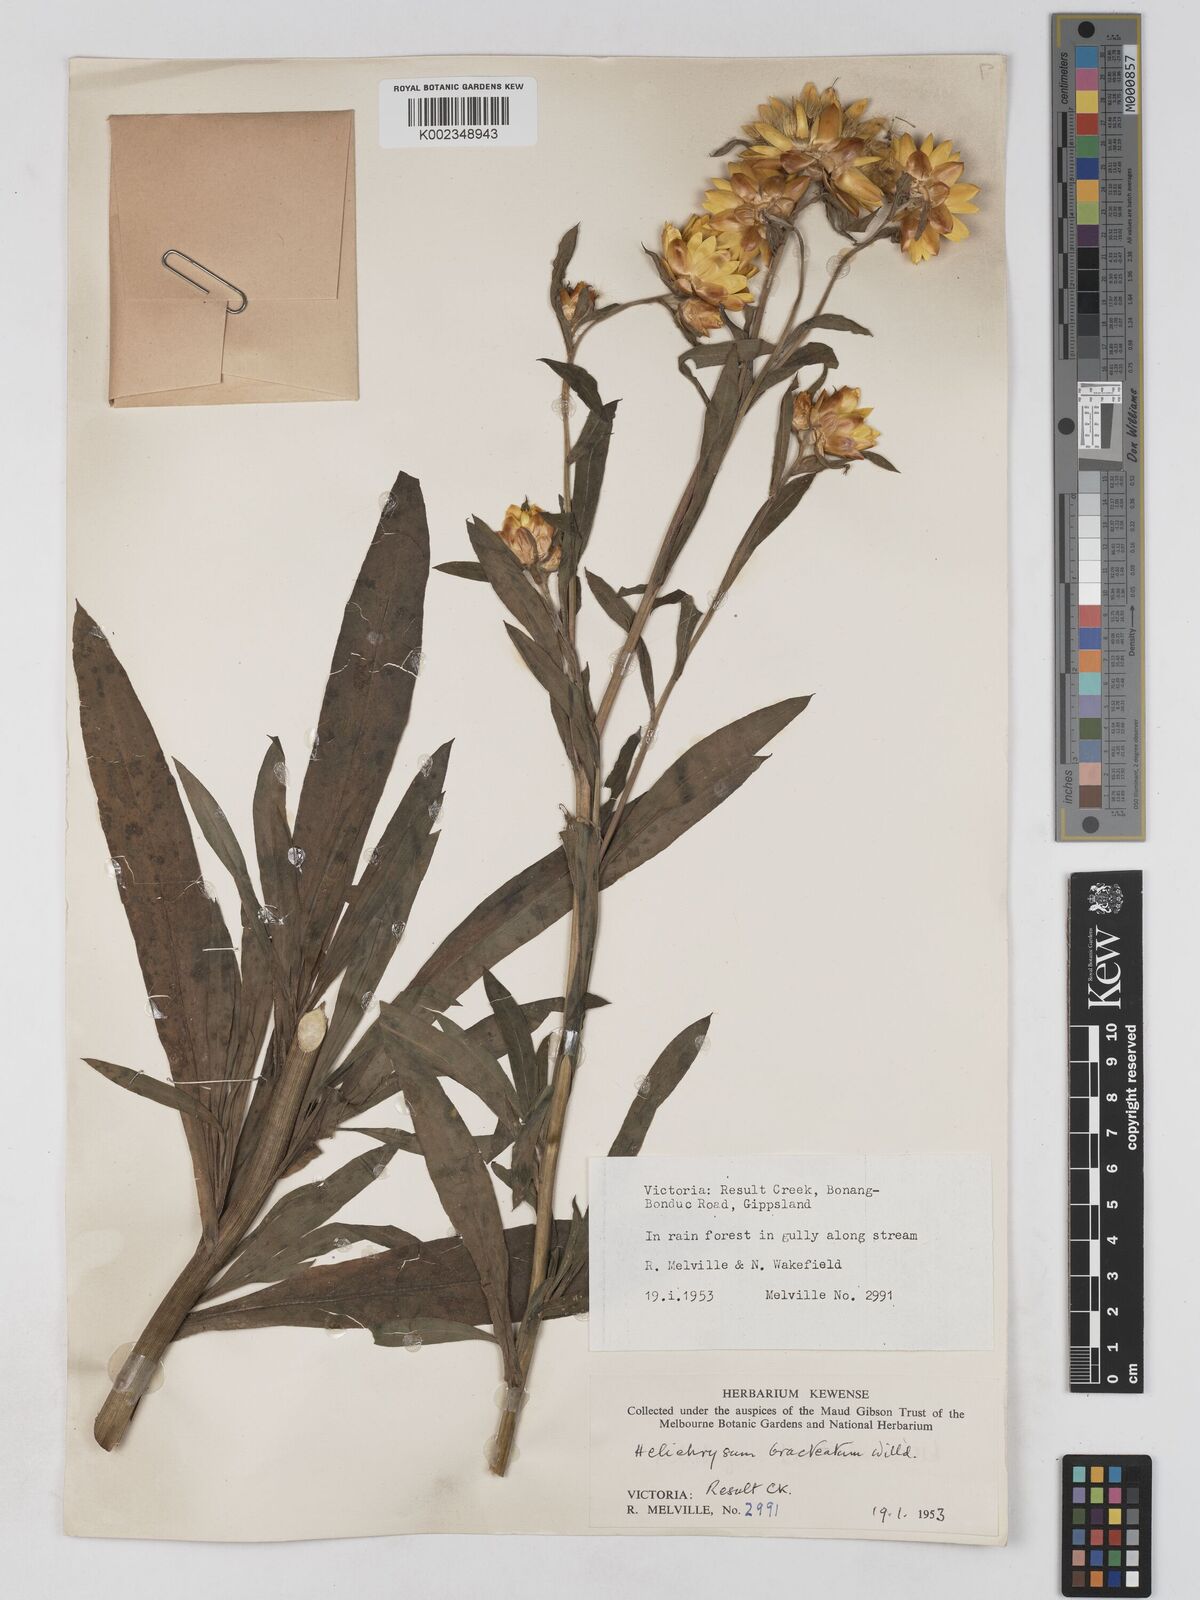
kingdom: Plantae
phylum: Tracheophyta
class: Magnoliopsida
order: Asterales
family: Asteraceae
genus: Xerochrysum
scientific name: Xerochrysum bracteatum
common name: Bracted strawflower
